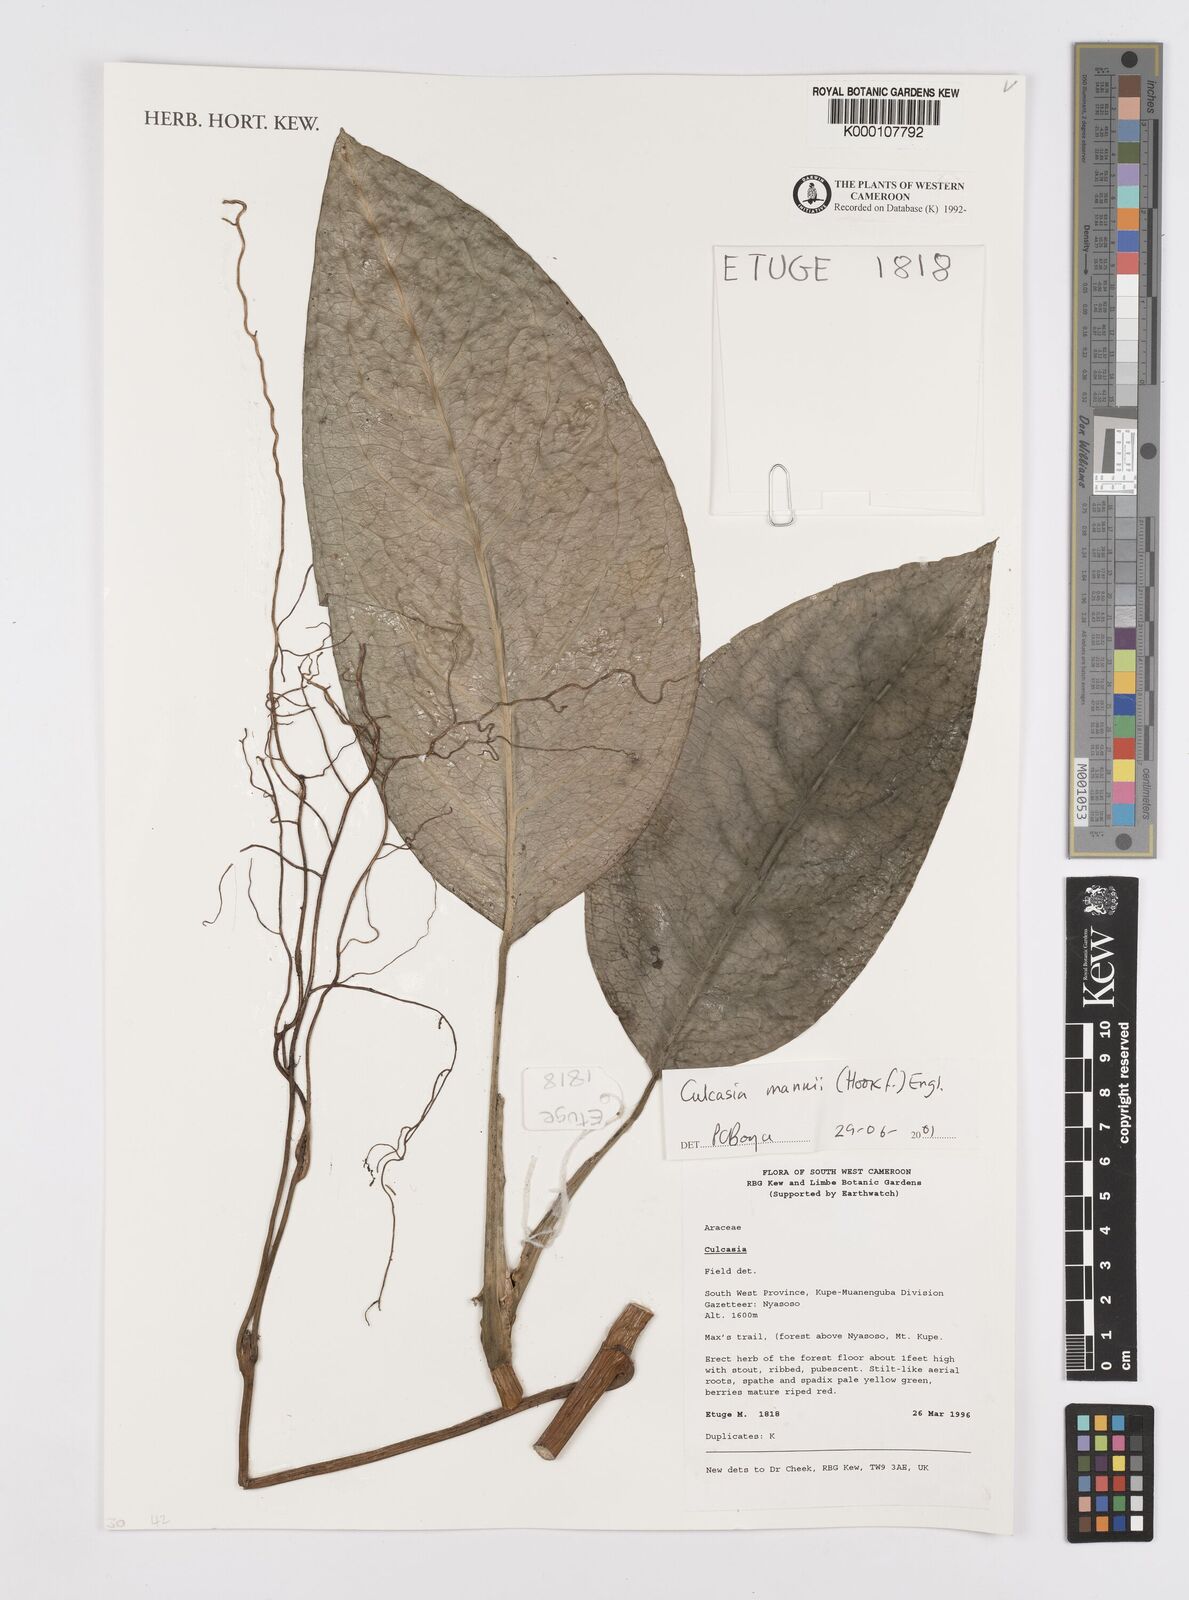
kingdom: Plantae
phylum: Tracheophyta
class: Liliopsida
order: Alismatales
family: Araceae
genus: Culcasia
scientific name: Culcasia mannii
